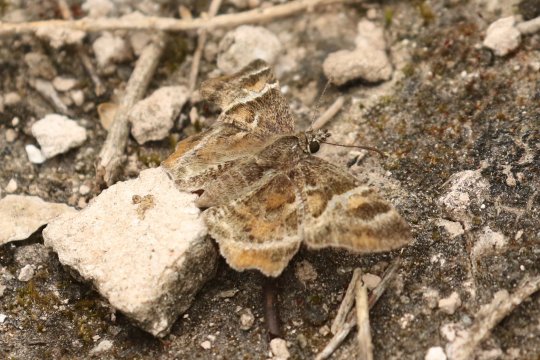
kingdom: Animalia
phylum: Arthropoda
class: Insecta
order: Lepidoptera
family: Hesperiidae
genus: Systasea
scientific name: Systasea pulverulenta
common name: Texas Powdered-Skipper
